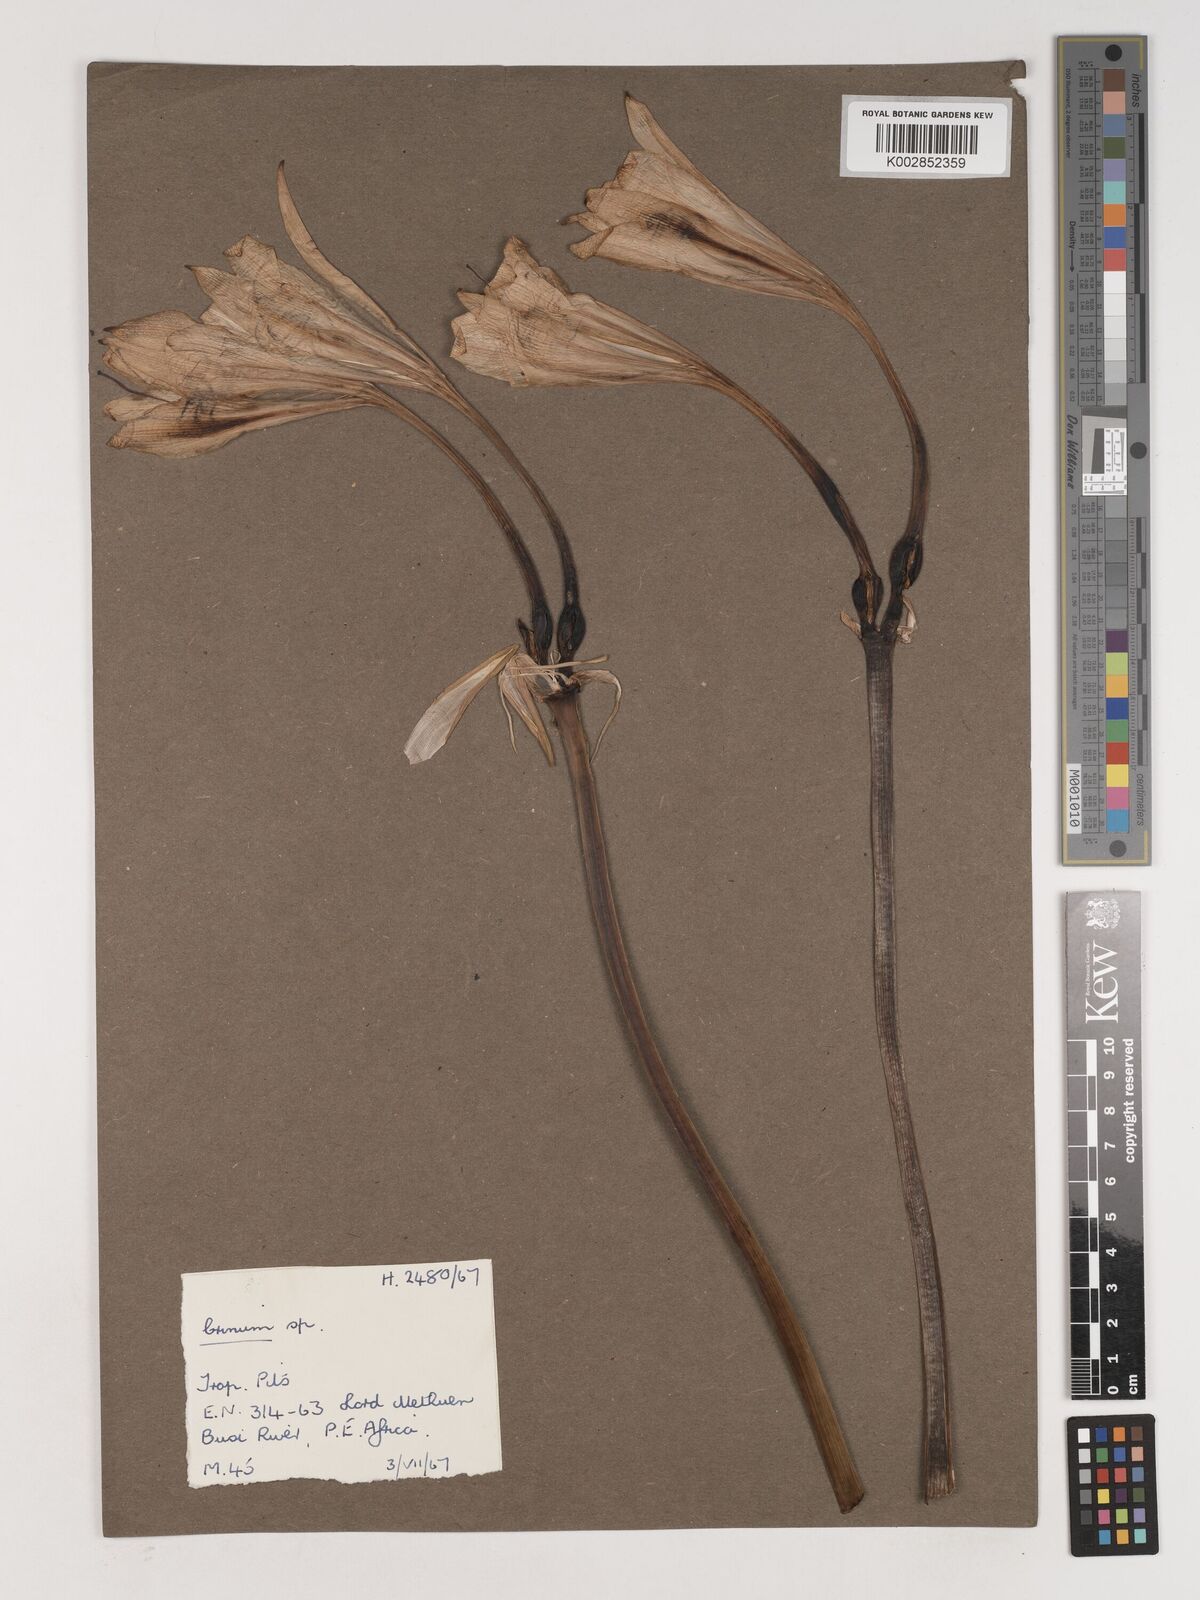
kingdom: Plantae
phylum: Tracheophyta
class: Liliopsida
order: Asparagales
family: Amaryllidaceae
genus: Crinum
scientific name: Crinum
